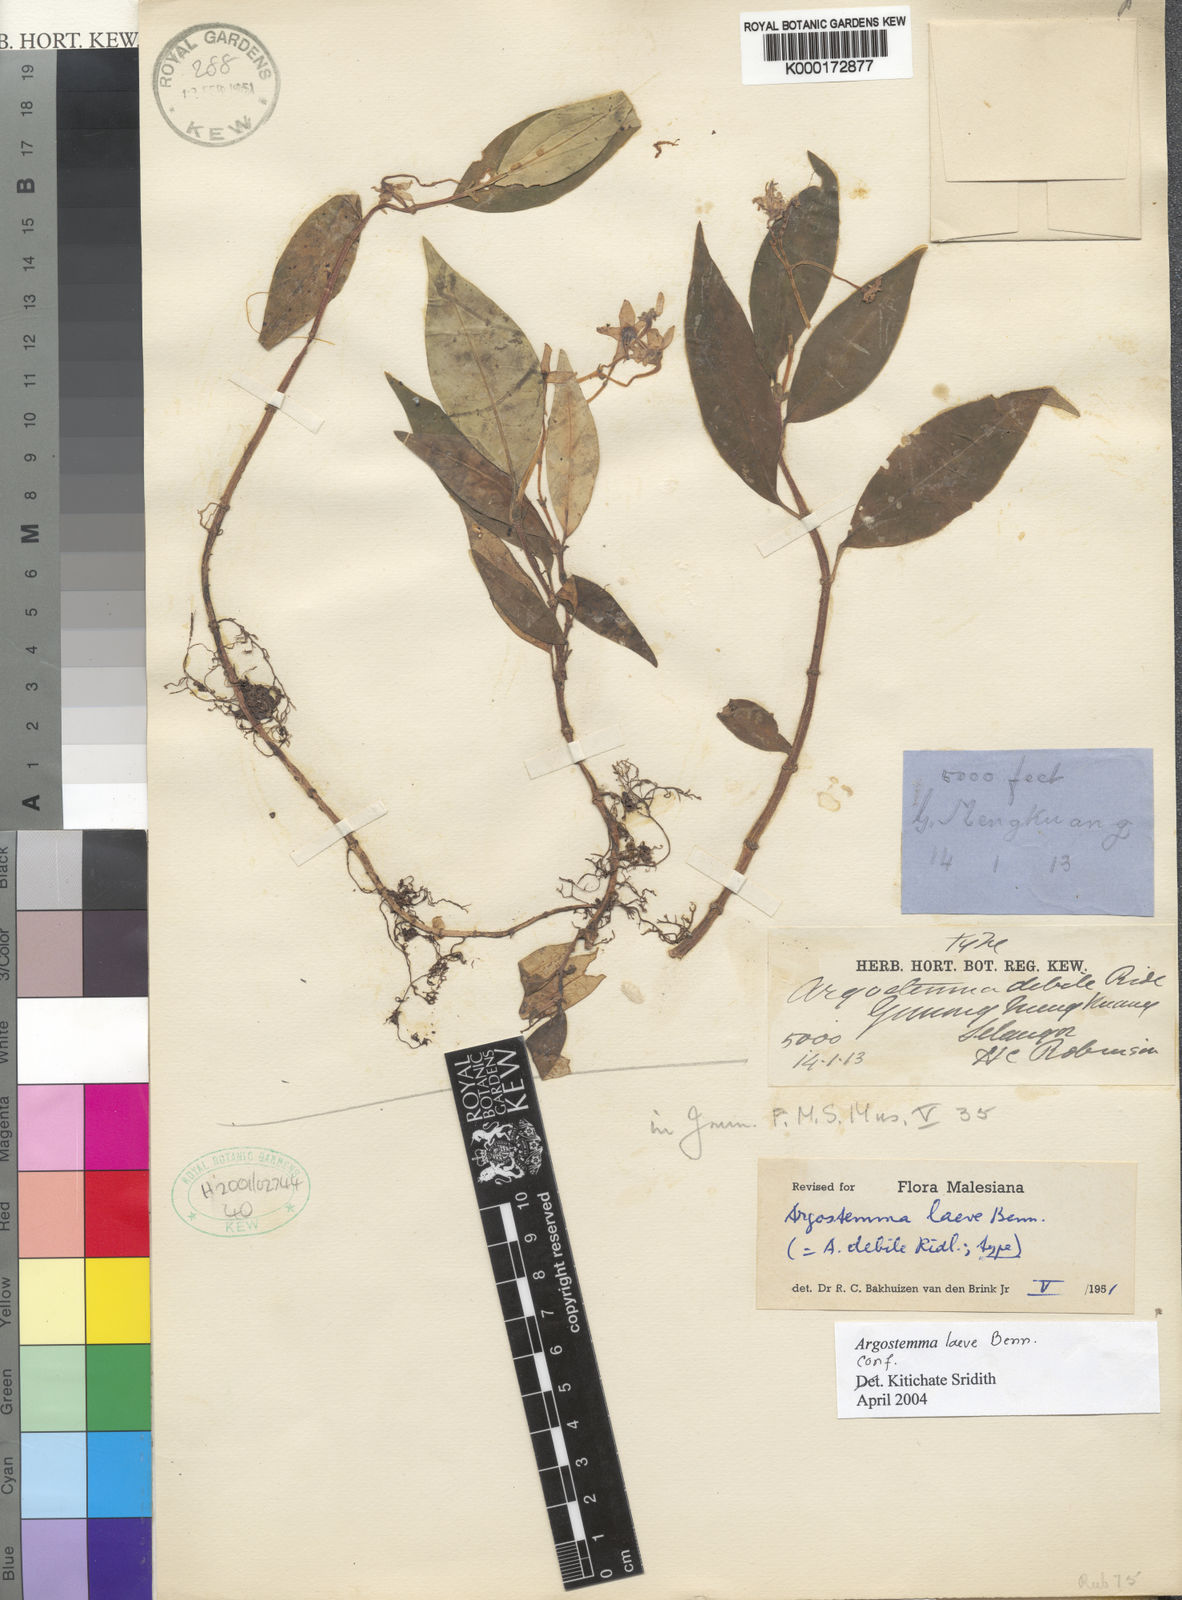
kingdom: Plantae
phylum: Tracheophyta
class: Magnoliopsida
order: Gentianales
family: Rubiaceae
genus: Argostemma
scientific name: Argostemma laeve
